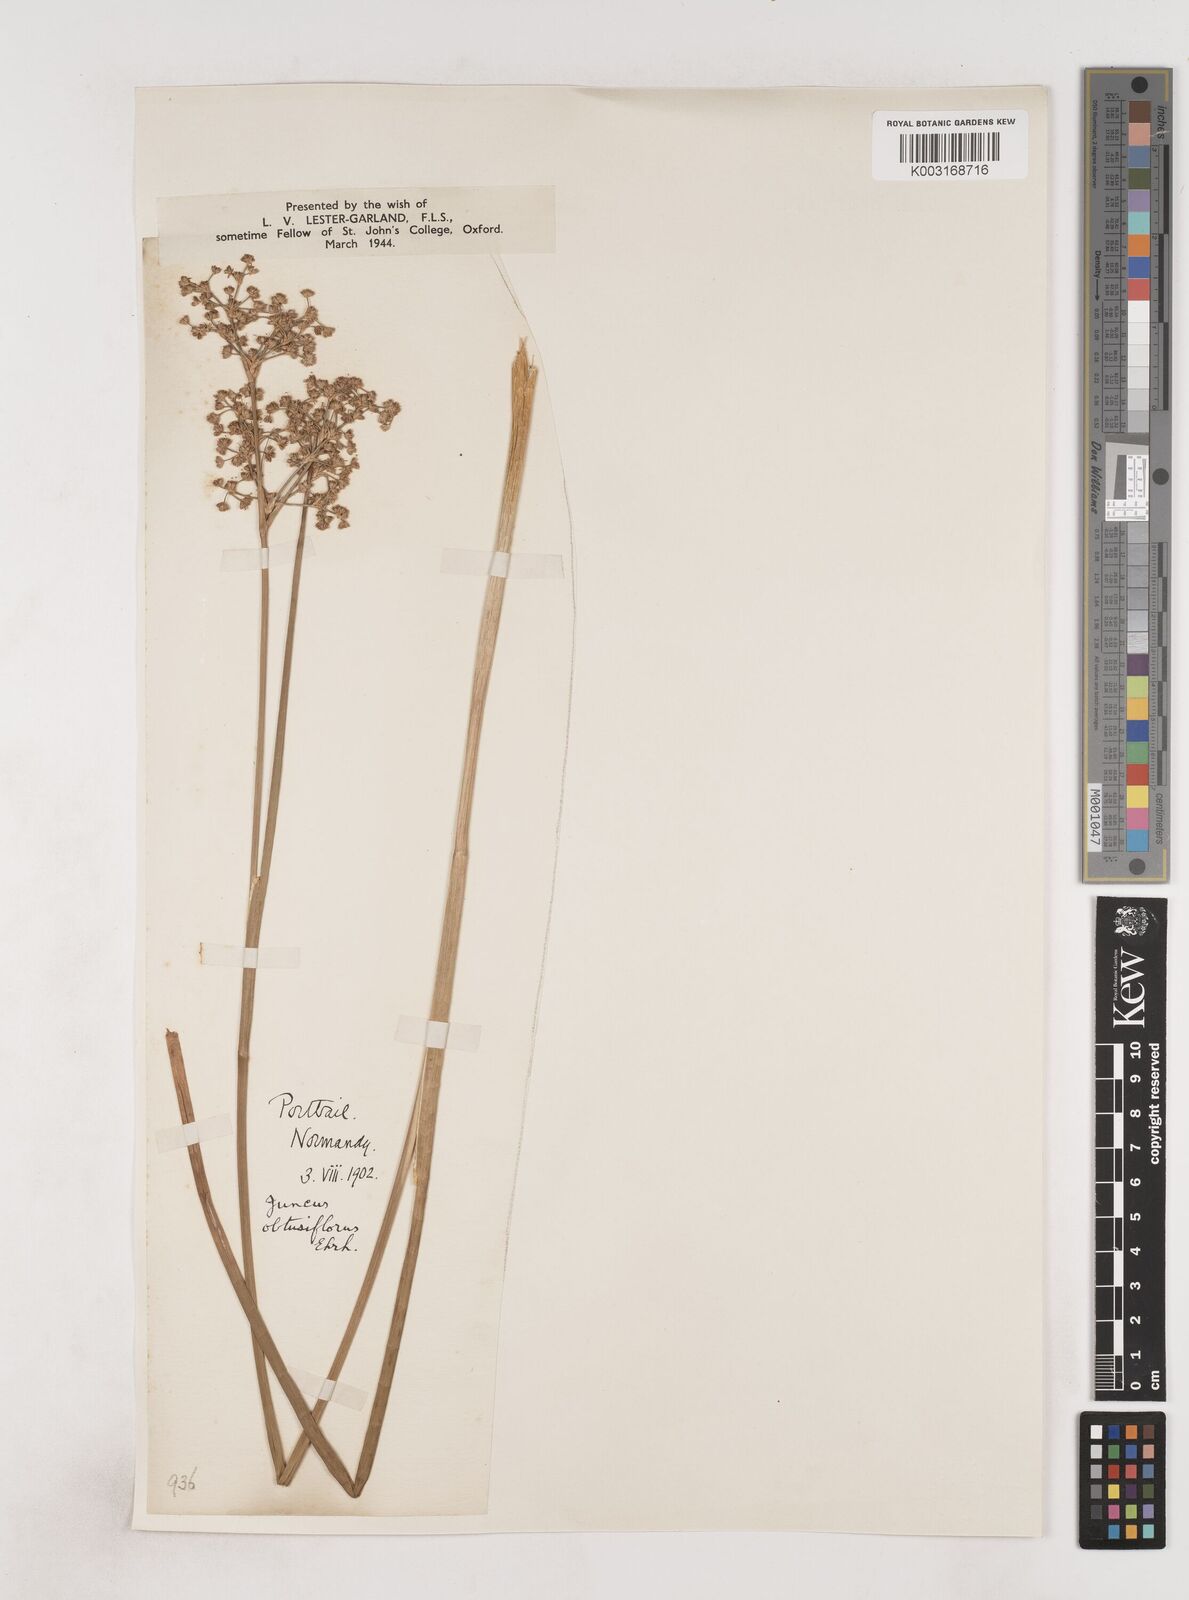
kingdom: Plantae
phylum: Tracheophyta
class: Liliopsida
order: Poales
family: Juncaceae
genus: Juncus
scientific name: Juncus subnodulosus
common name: Blunt-flowered rush
